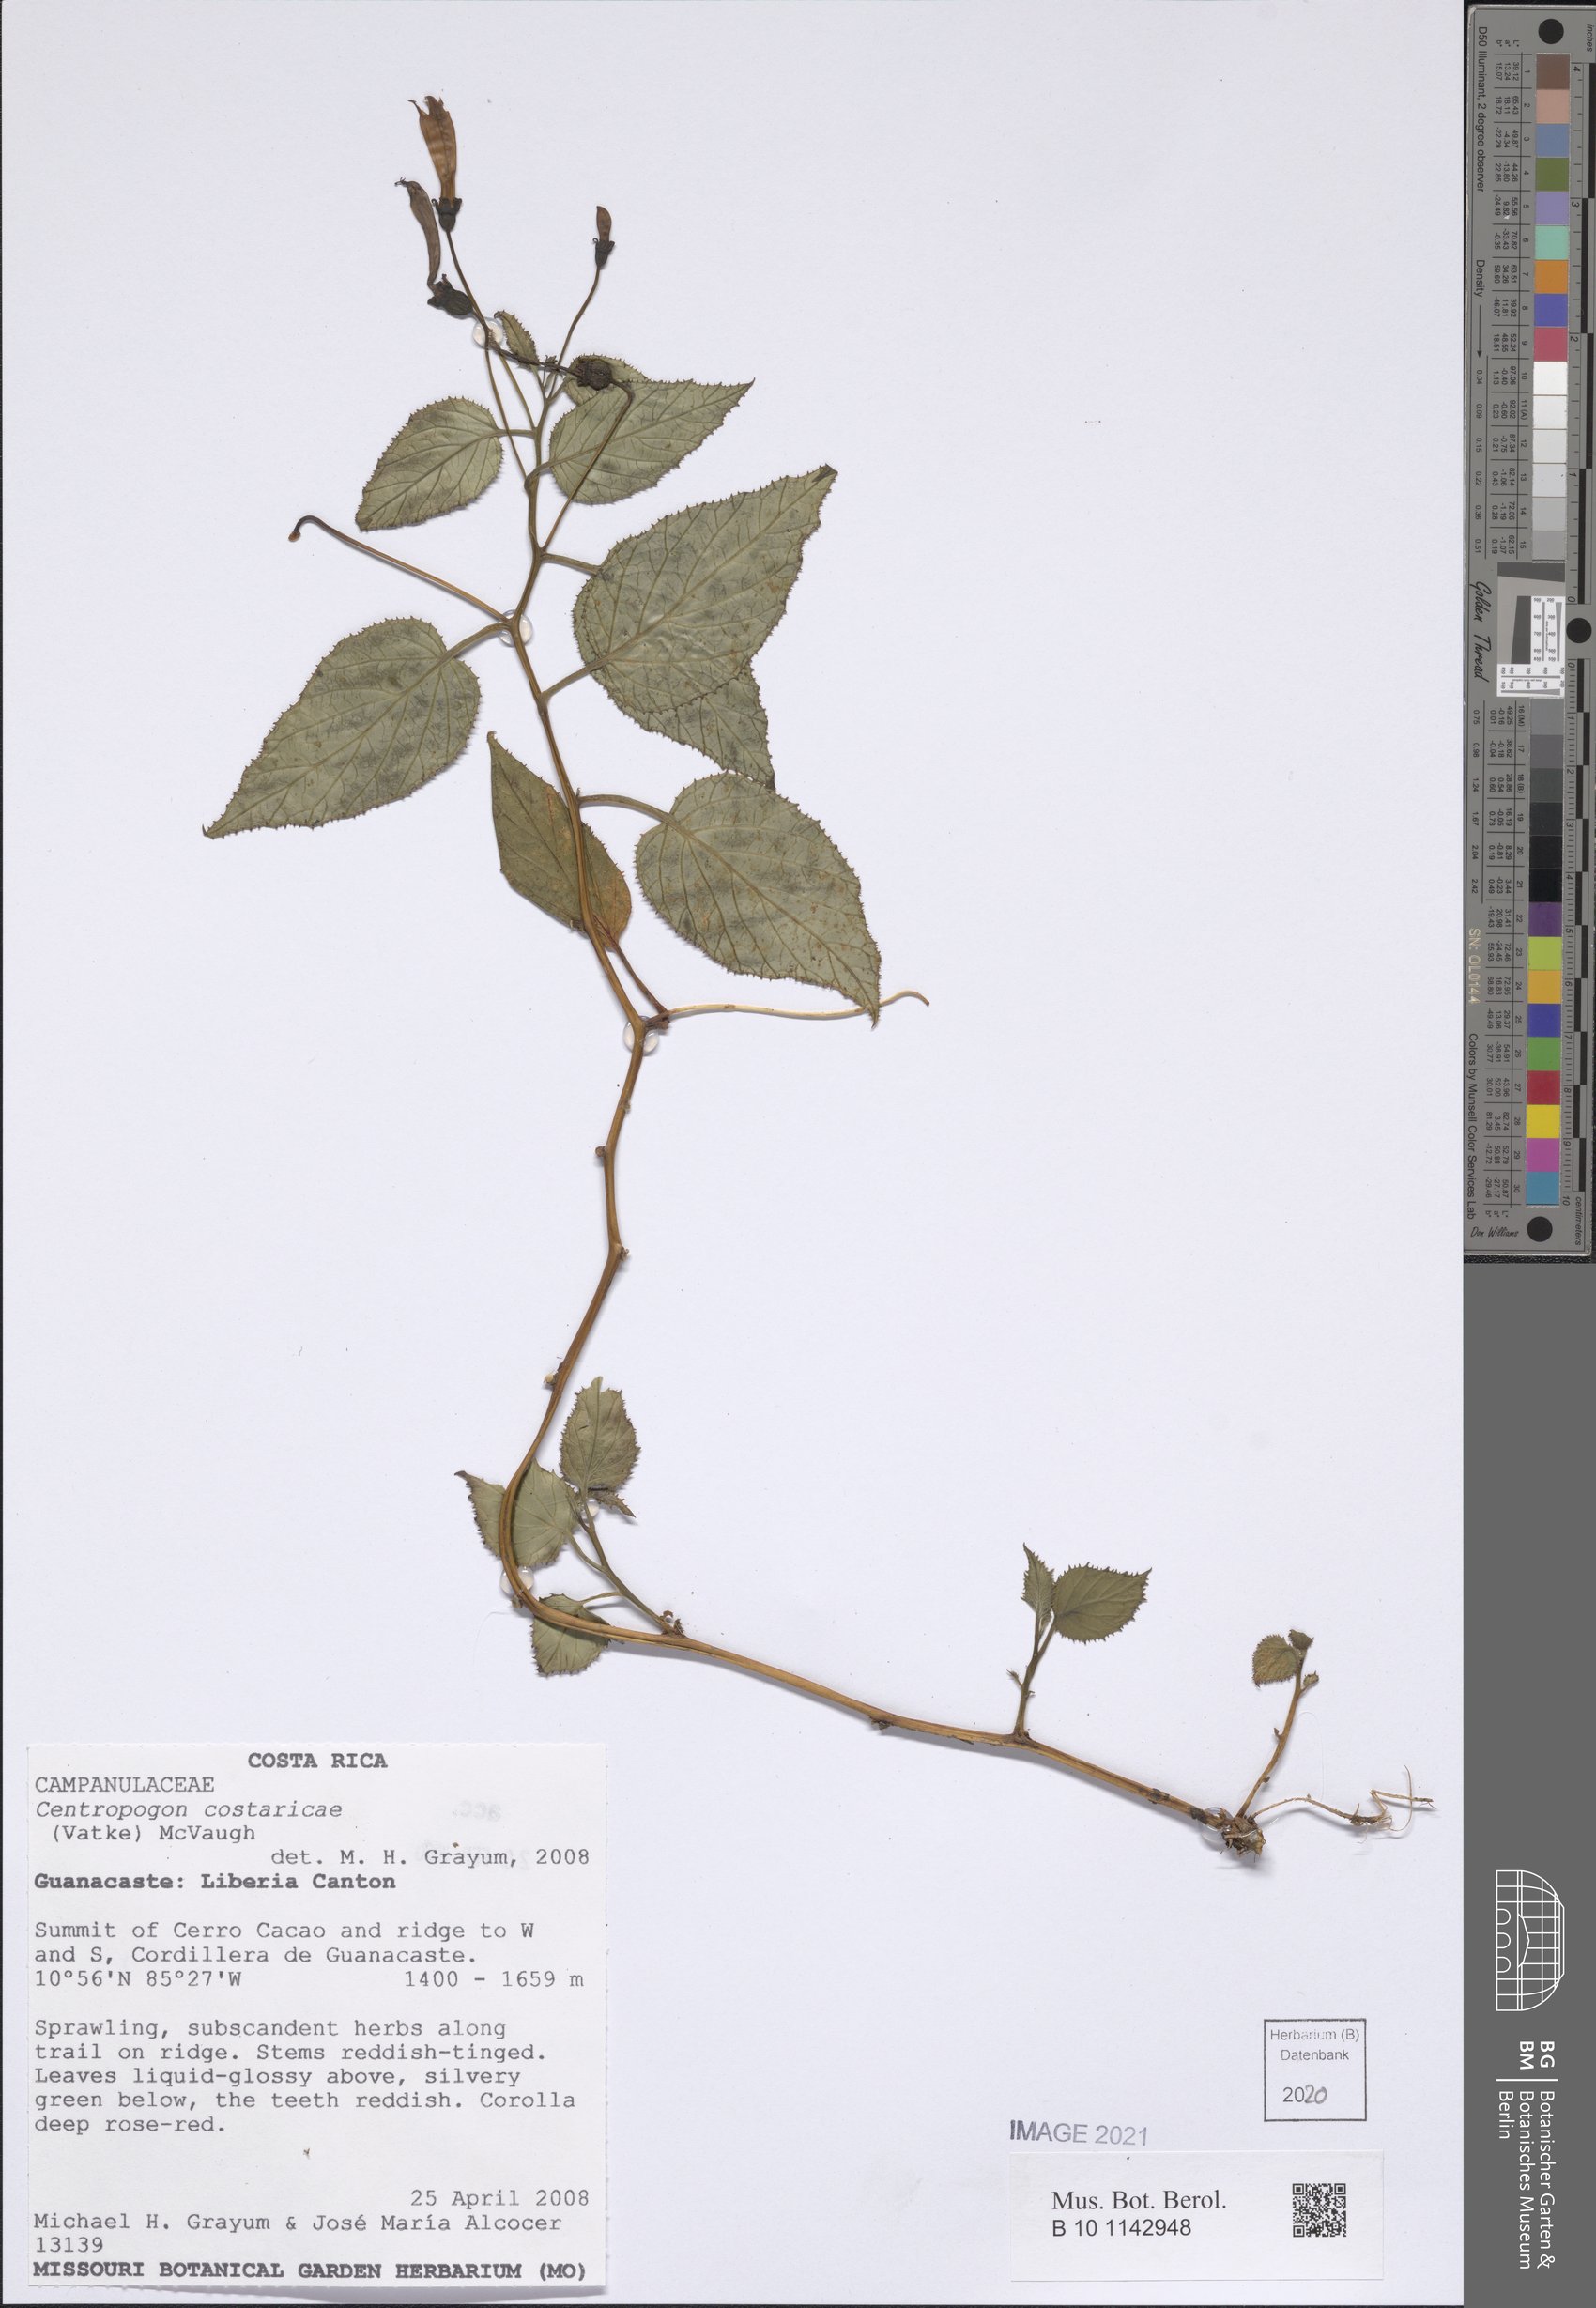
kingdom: Plantae
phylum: Tracheophyta
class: Magnoliopsida
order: Asterales
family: Campanulaceae
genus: Centropogon
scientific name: Centropogon costaricae
